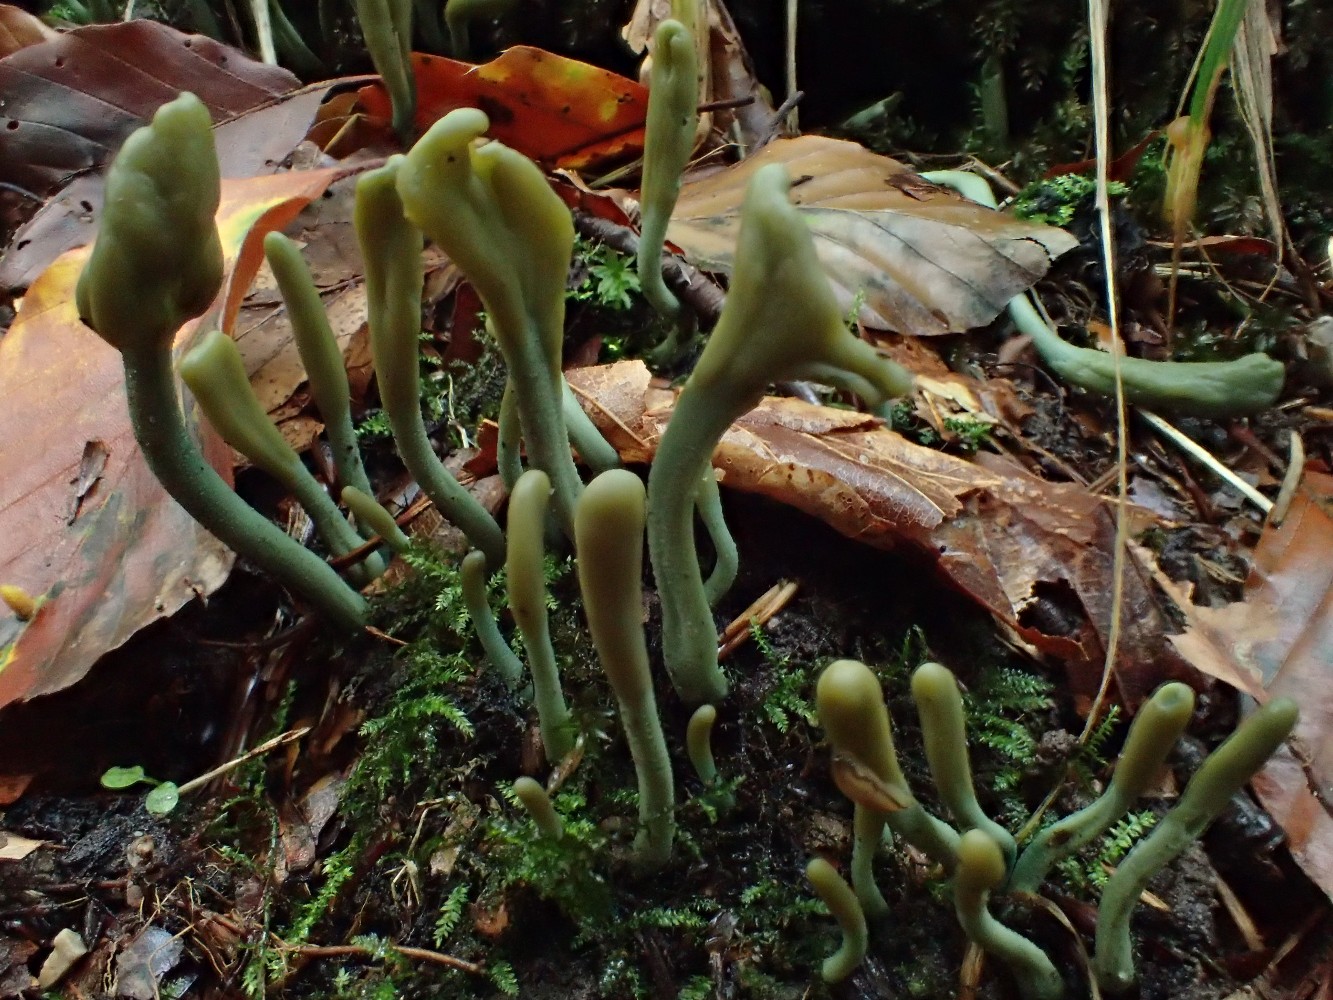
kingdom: Fungi
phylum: Ascomycota
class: Leotiomycetes
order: Leotiales
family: Leotiaceae
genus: Microglossum
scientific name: Microglossum griseoviride
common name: grågrøn farvetunge
